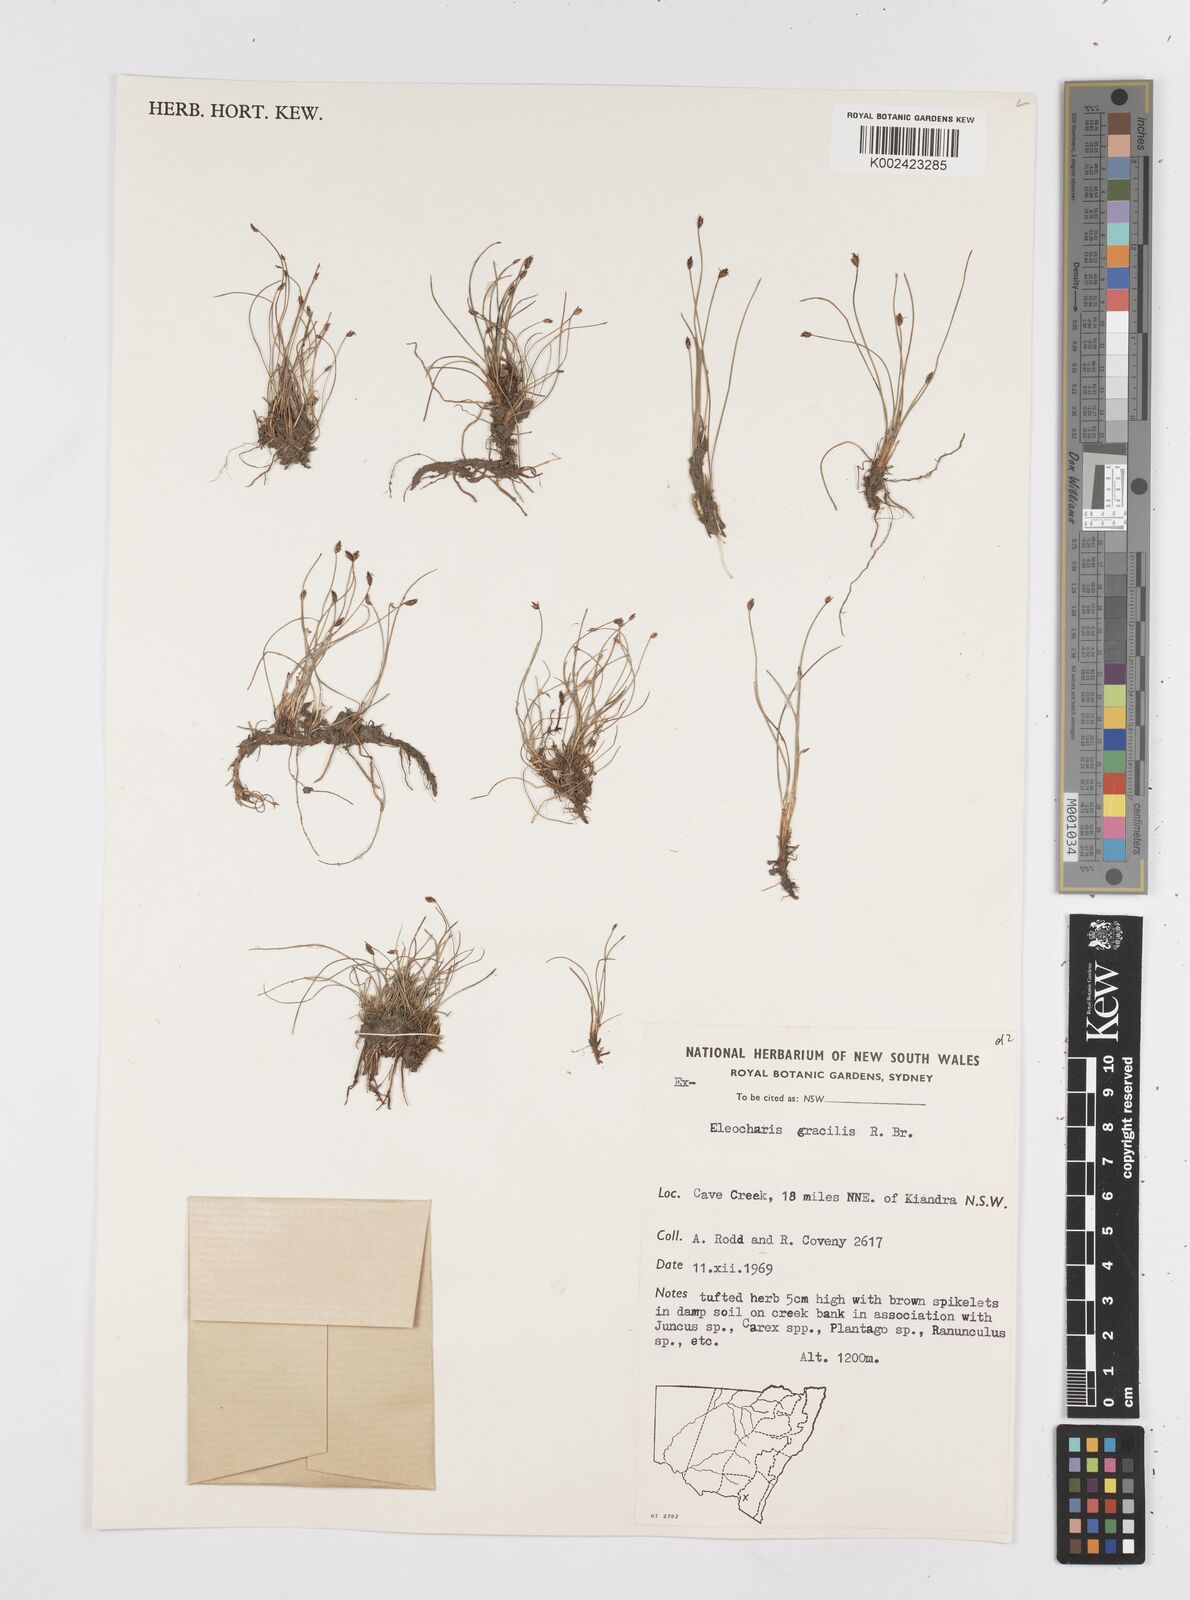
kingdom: Plantae
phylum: Tracheophyta
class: Liliopsida
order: Poales
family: Cyperaceae
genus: Eleocharis
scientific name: Eleocharis multicaulis
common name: Many-stalked spike-rush
